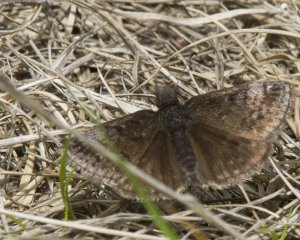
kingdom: Animalia
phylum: Arthropoda
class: Insecta
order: Lepidoptera
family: Hesperiidae
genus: Erynnis
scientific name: Erynnis icelus
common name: Dreamy Duskywing
